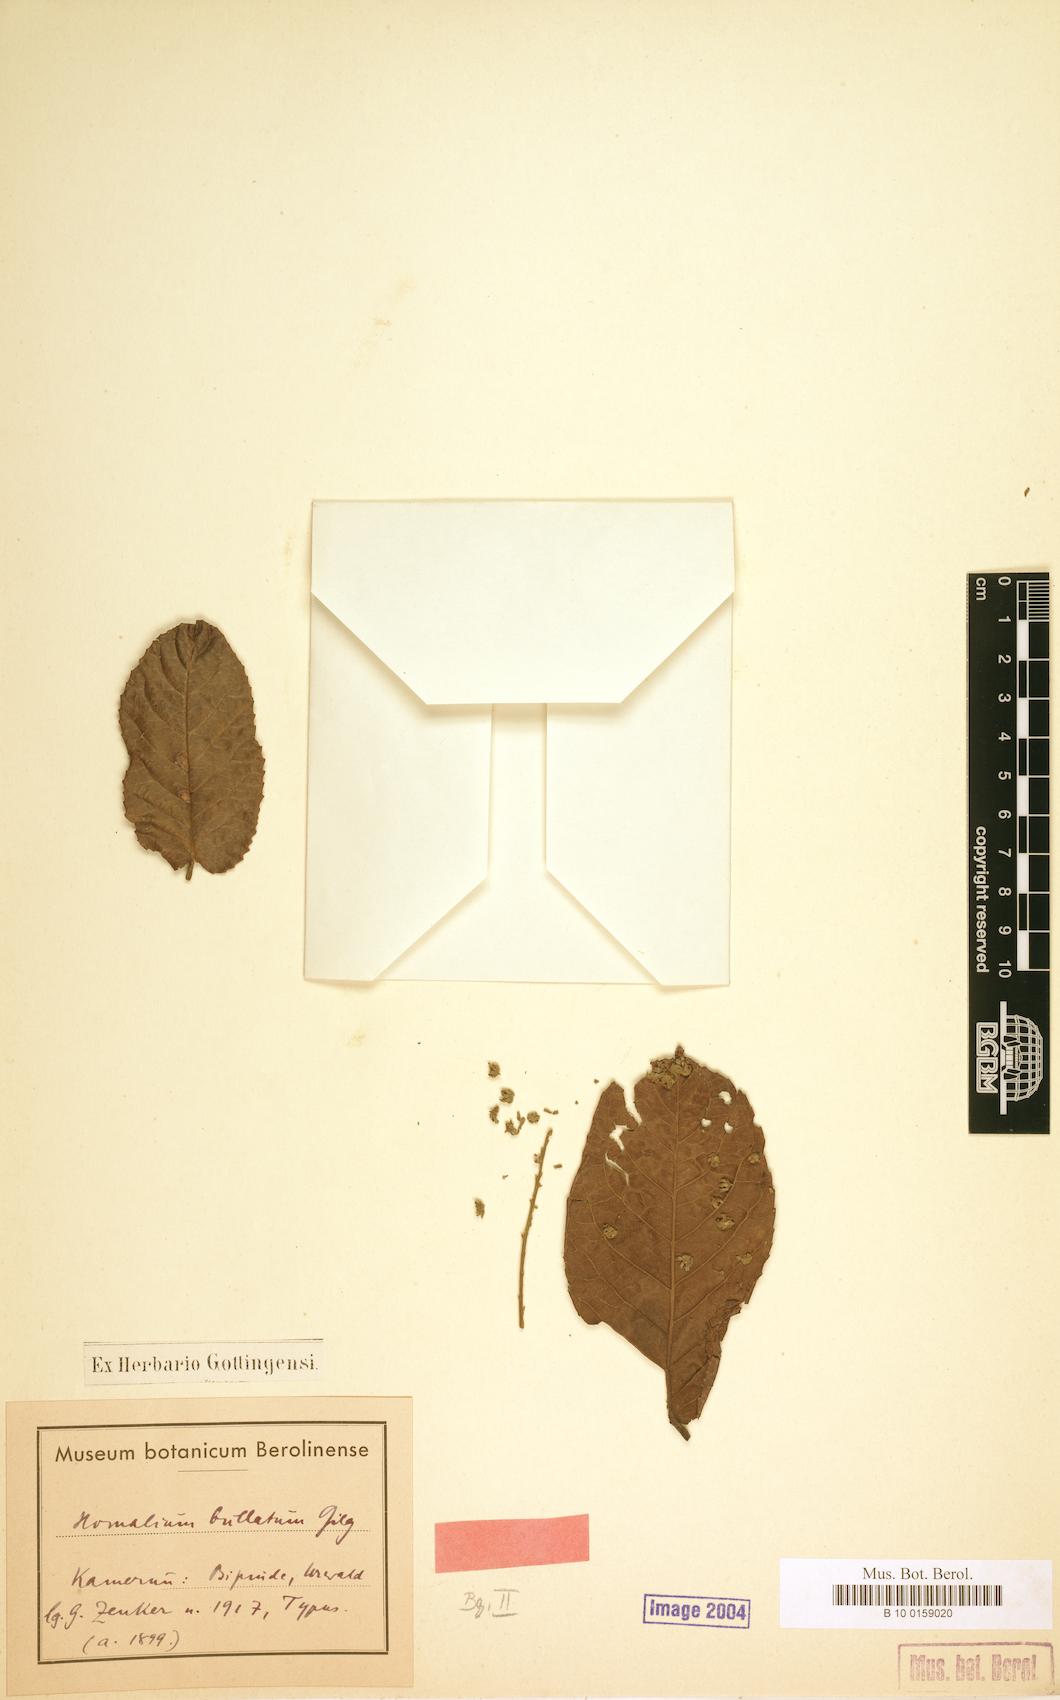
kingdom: Plantae
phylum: Tracheophyta
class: Magnoliopsida
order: Malpighiales
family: Salicaceae
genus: Homalium
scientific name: Homalium stipulaceum
